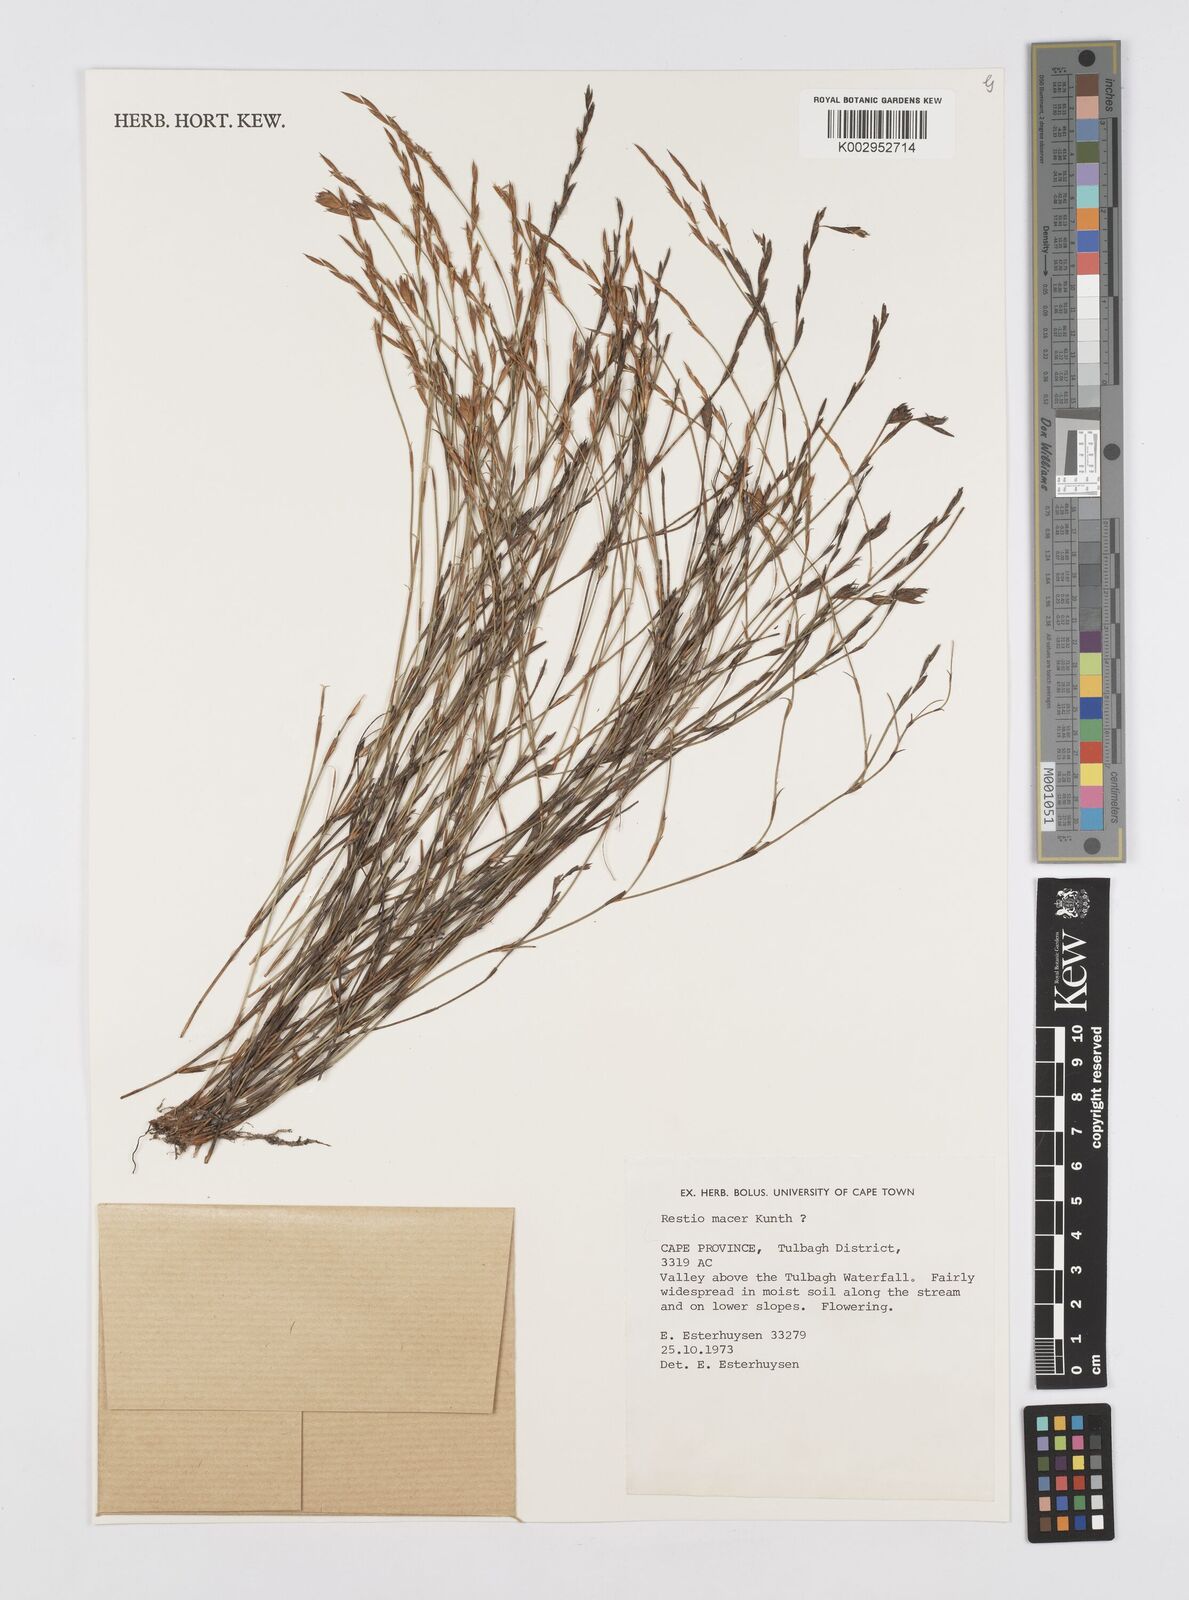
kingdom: Plantae
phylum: Tracheophyta
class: Liliopsida
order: Poales
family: Restionaceae
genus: Restio
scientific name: Restio macer
